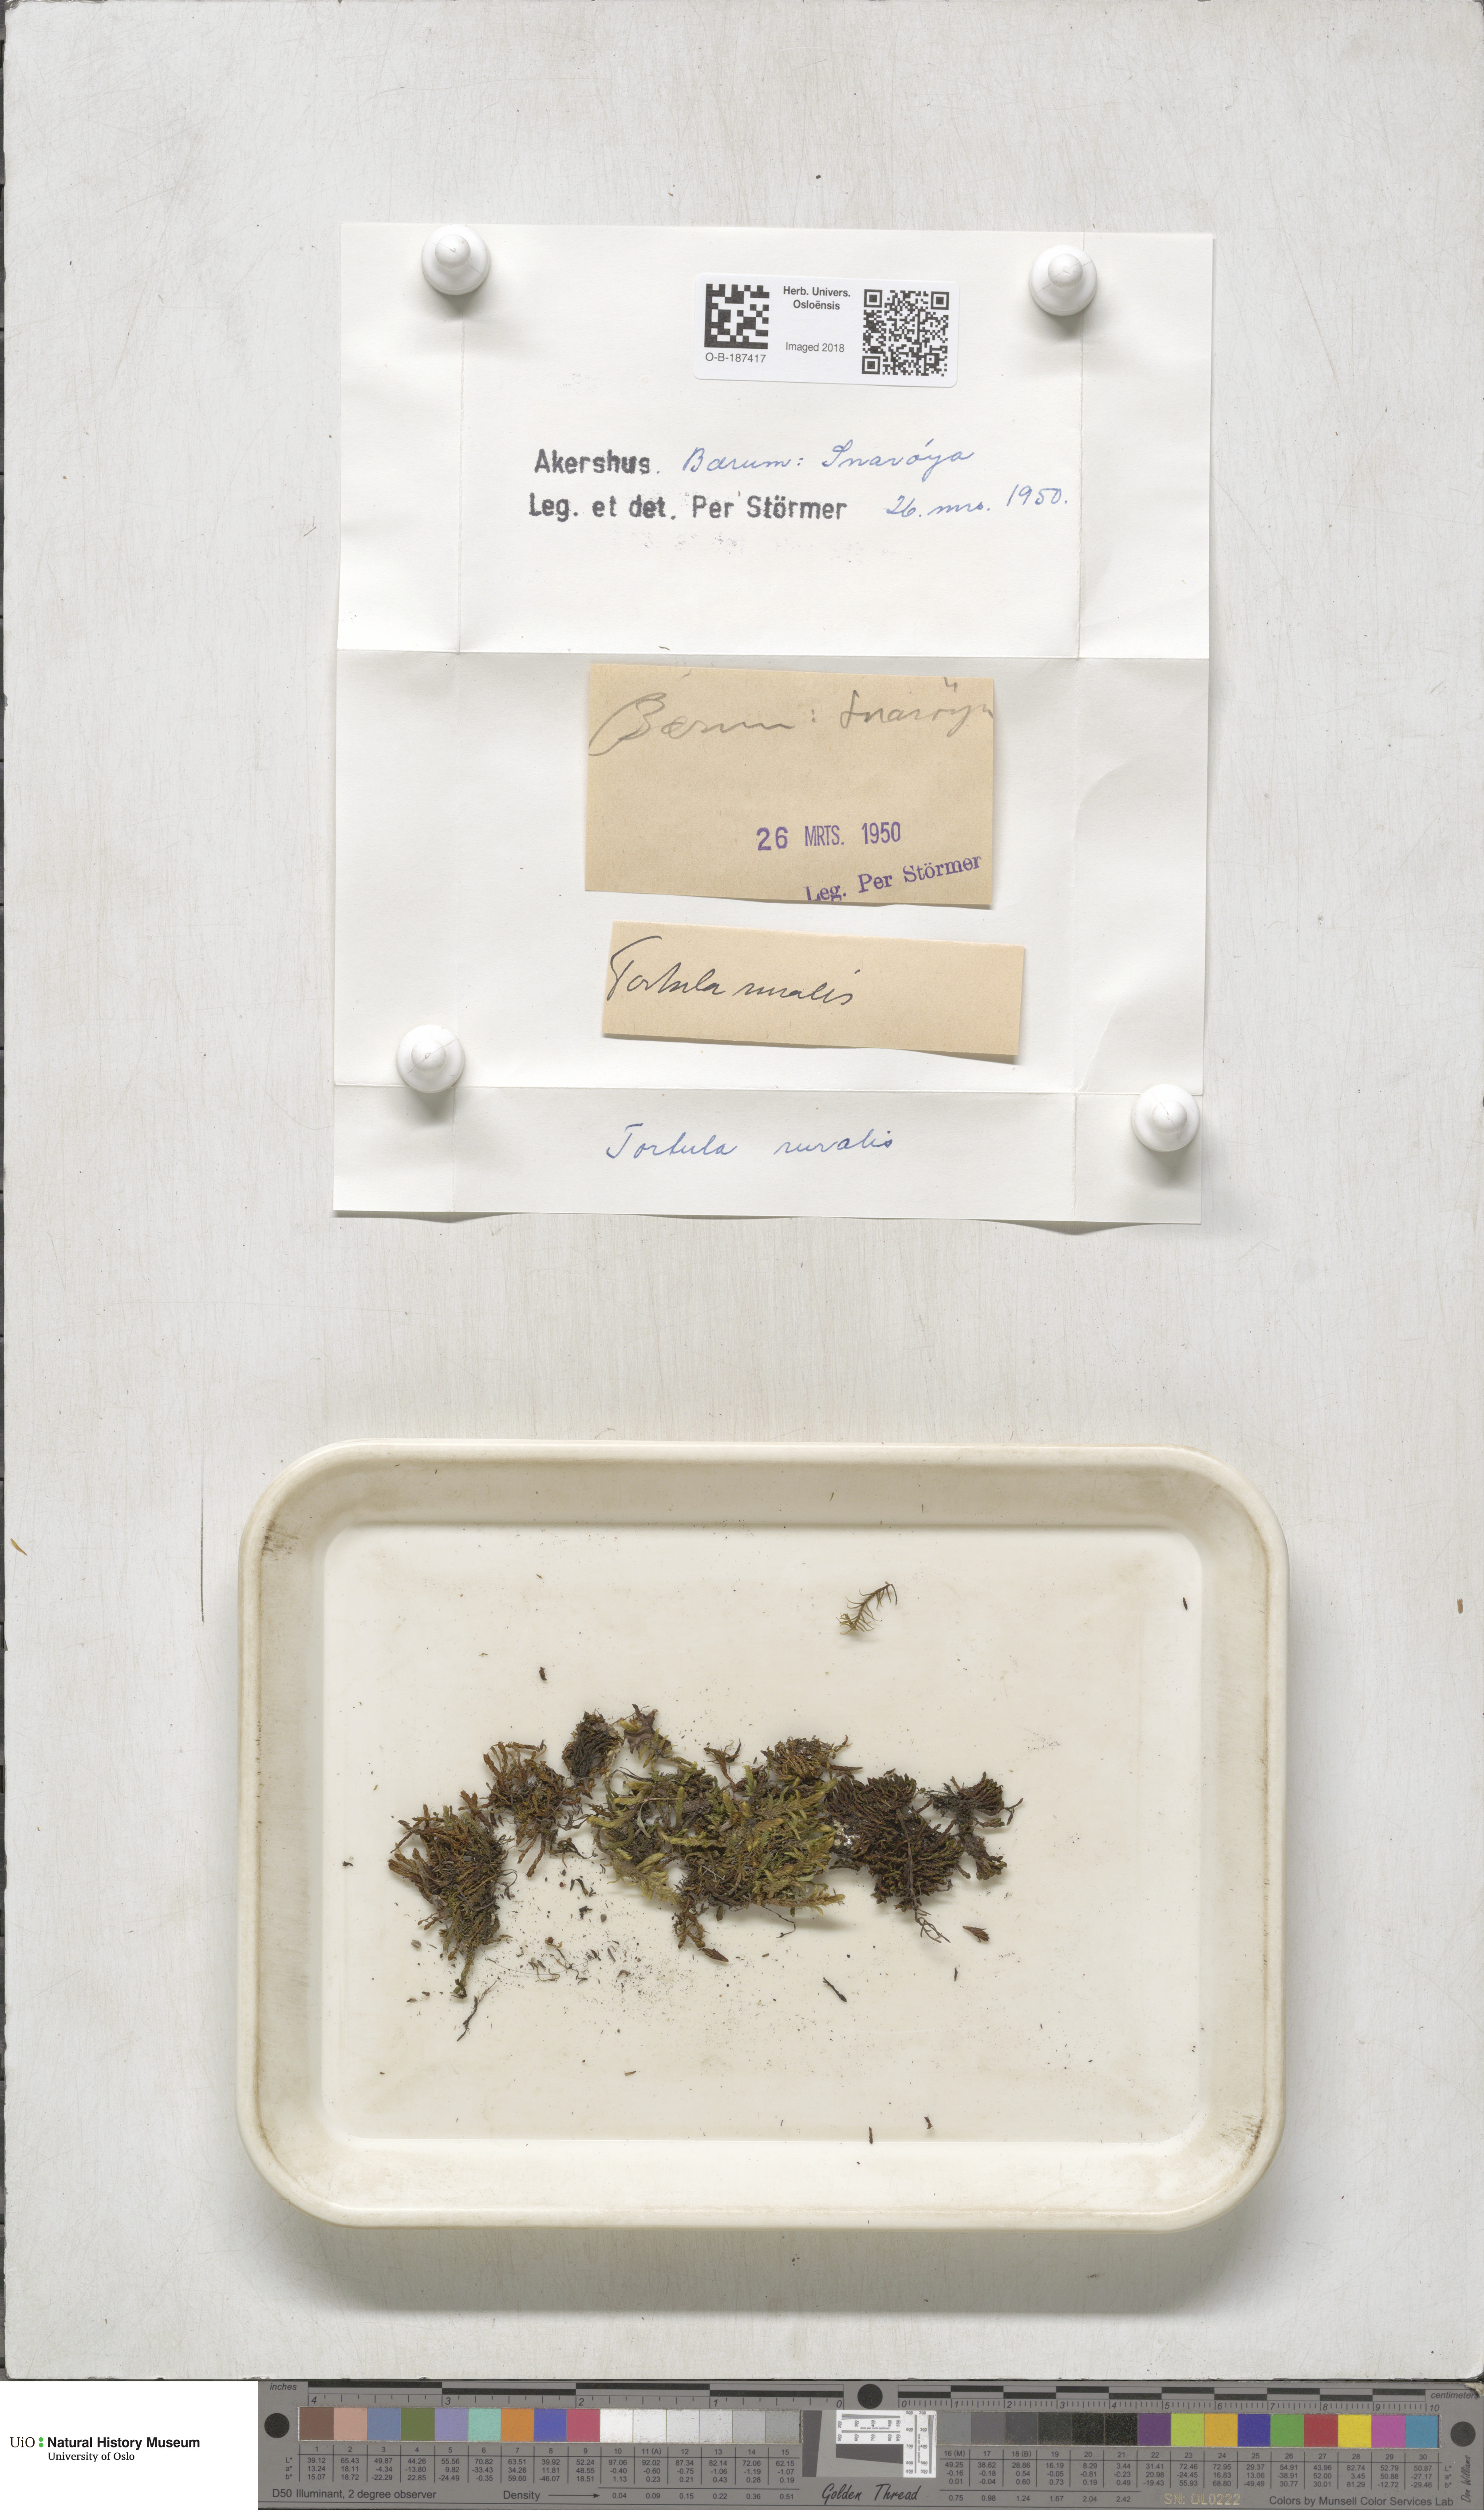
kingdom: Plantae
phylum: Bryophyta
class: Bryopsida
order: Pottiales
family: Pottiaceae
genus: Syntrichia
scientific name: Syntrichia ruralis
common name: Sidewalk screw moss
